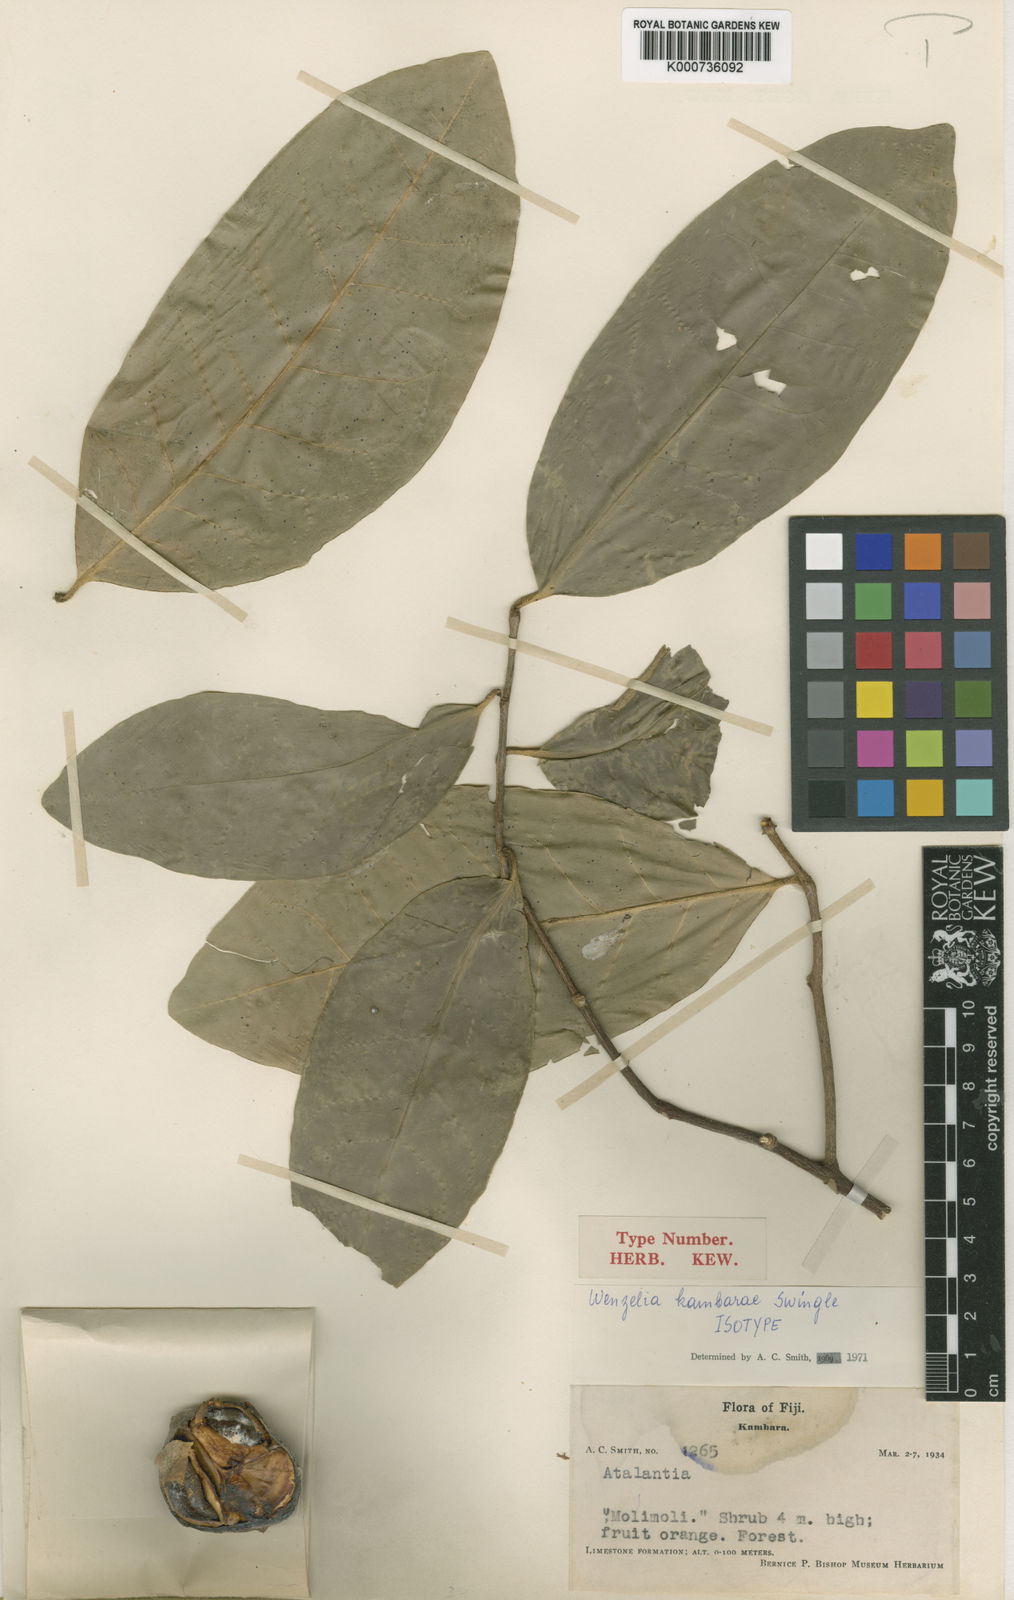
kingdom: Plantae
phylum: Tracheophyta
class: Magnoliopsida
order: Sapindales
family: Rutaceae
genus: Wenzelia
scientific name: Wenzelia kambarae
